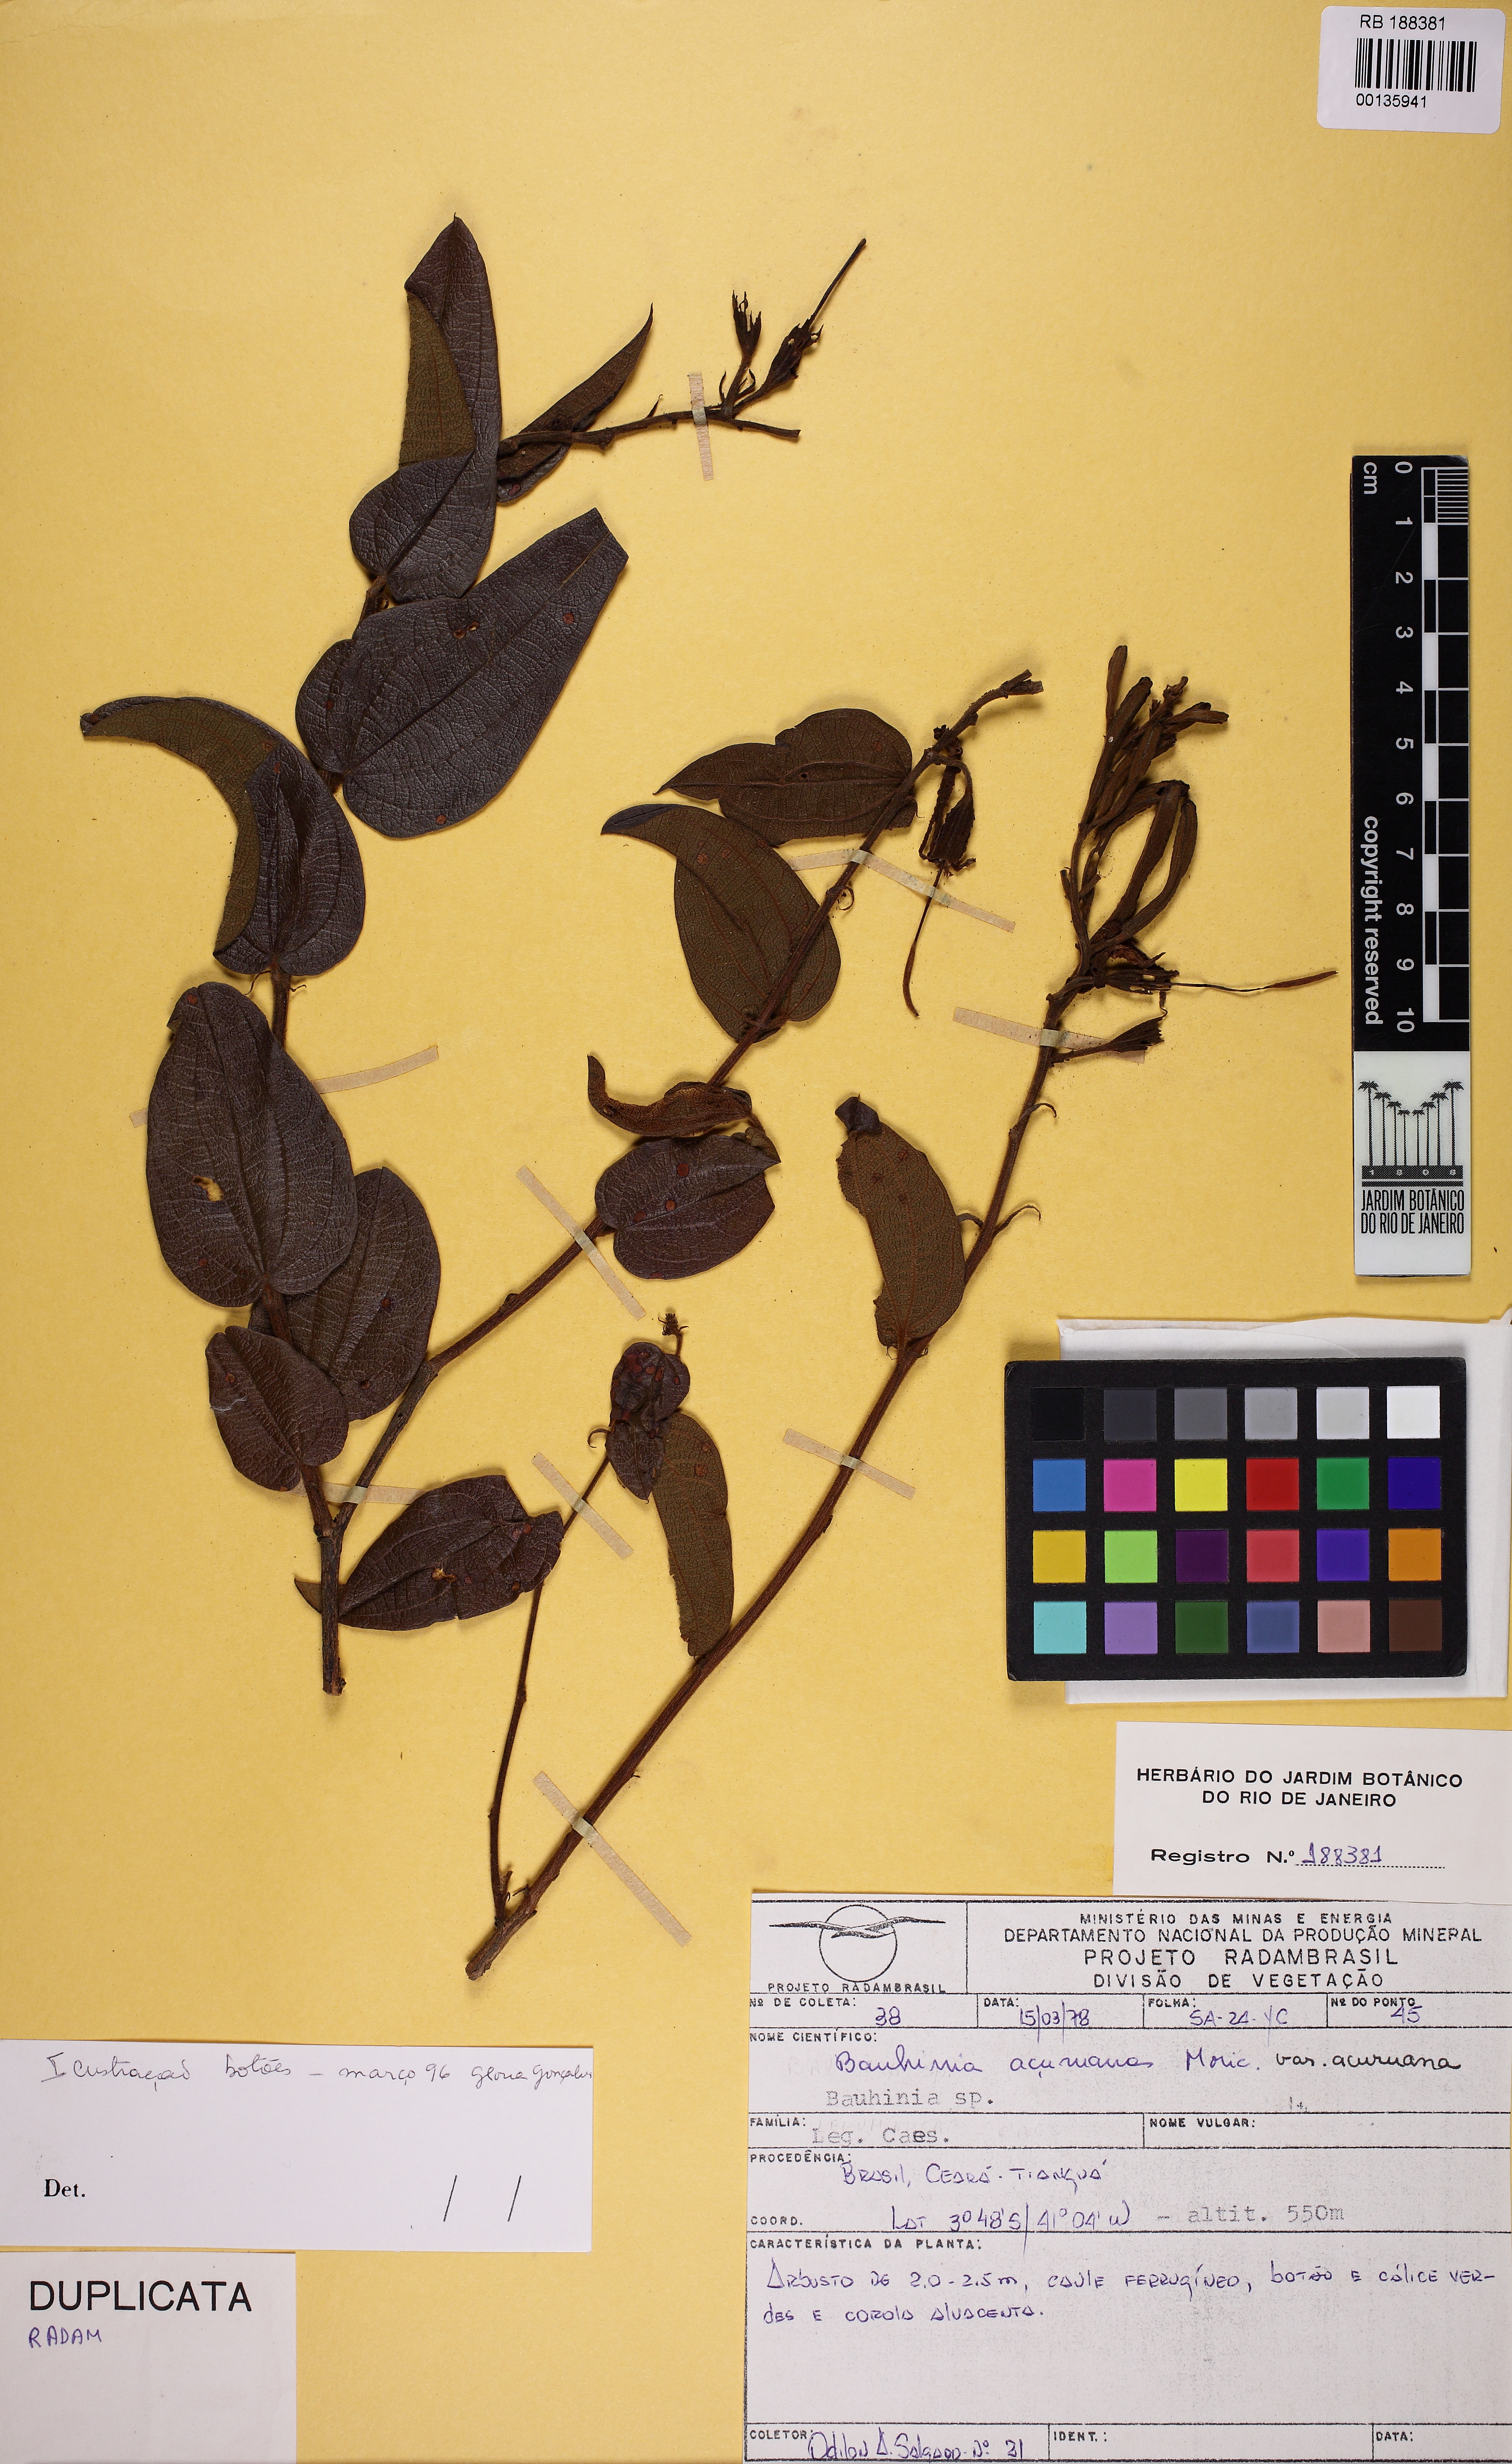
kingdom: Plantae
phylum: Tracheophyta
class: Magnoliopsida
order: Fabales
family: Fabaceae
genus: Bauhinia
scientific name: Bauhinia acuruana
